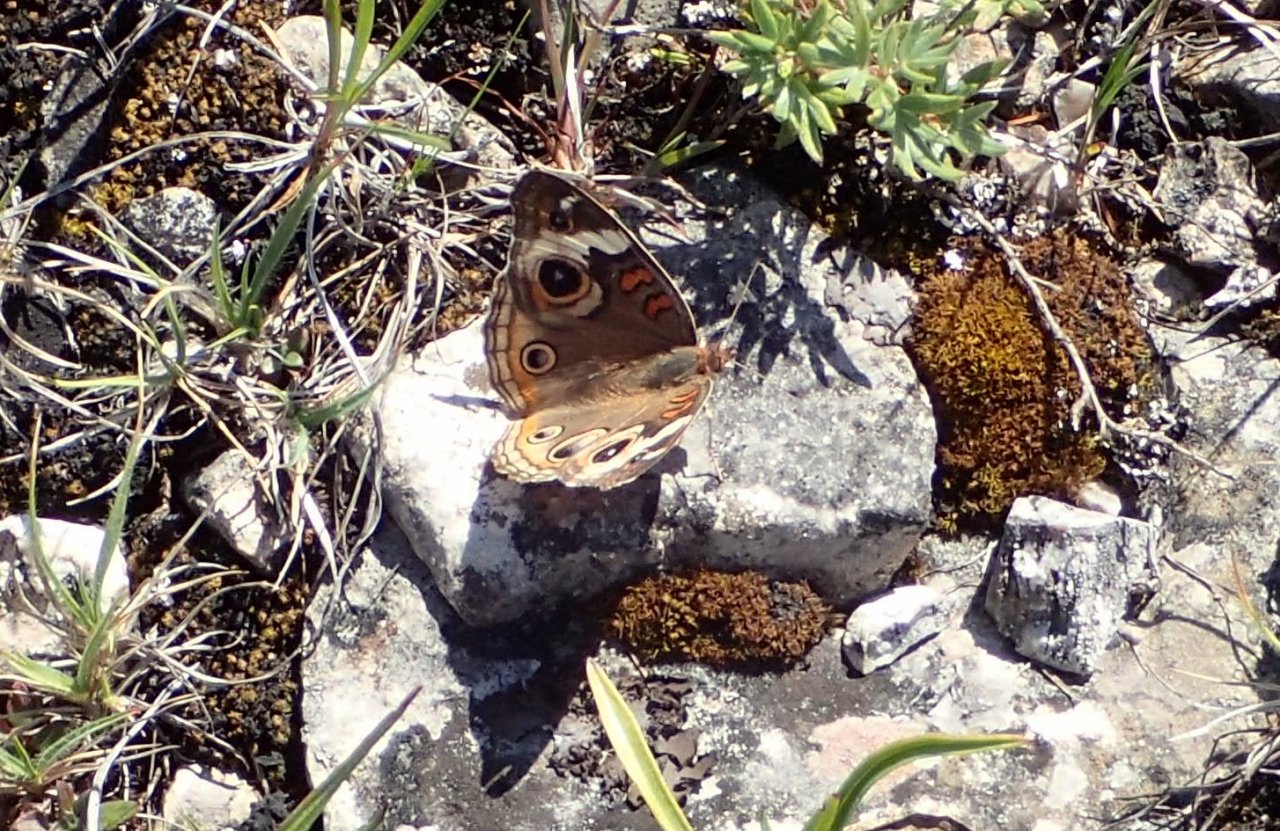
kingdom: Animalia
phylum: Arthropoda
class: Insecta
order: Lepidoptera
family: Nymphalidae
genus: Junonia
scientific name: Junonia coenia
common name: Common Buckeye
